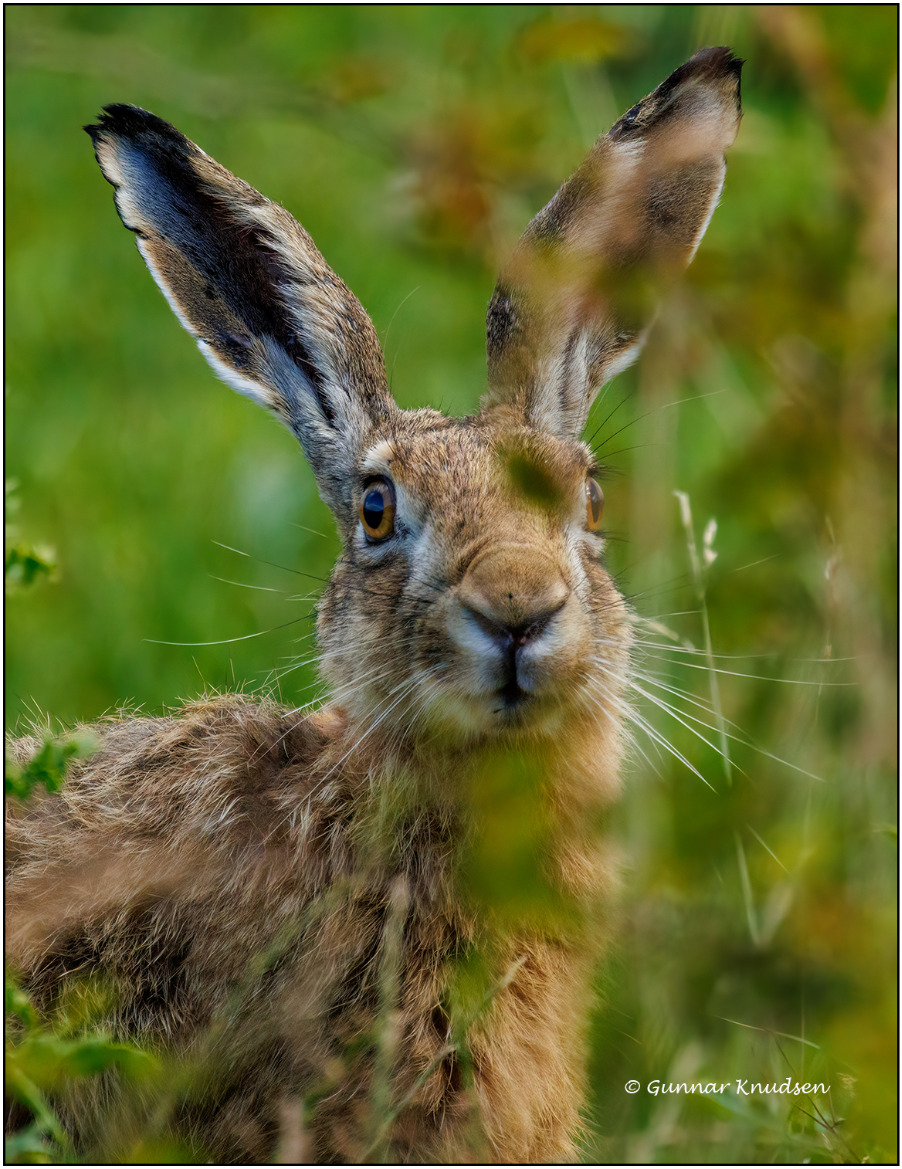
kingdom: Animalia
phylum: Chordata
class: Mammalia
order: Lagomorpha
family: Leporidae
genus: Lepus
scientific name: Lepus europaeus
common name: Hare
